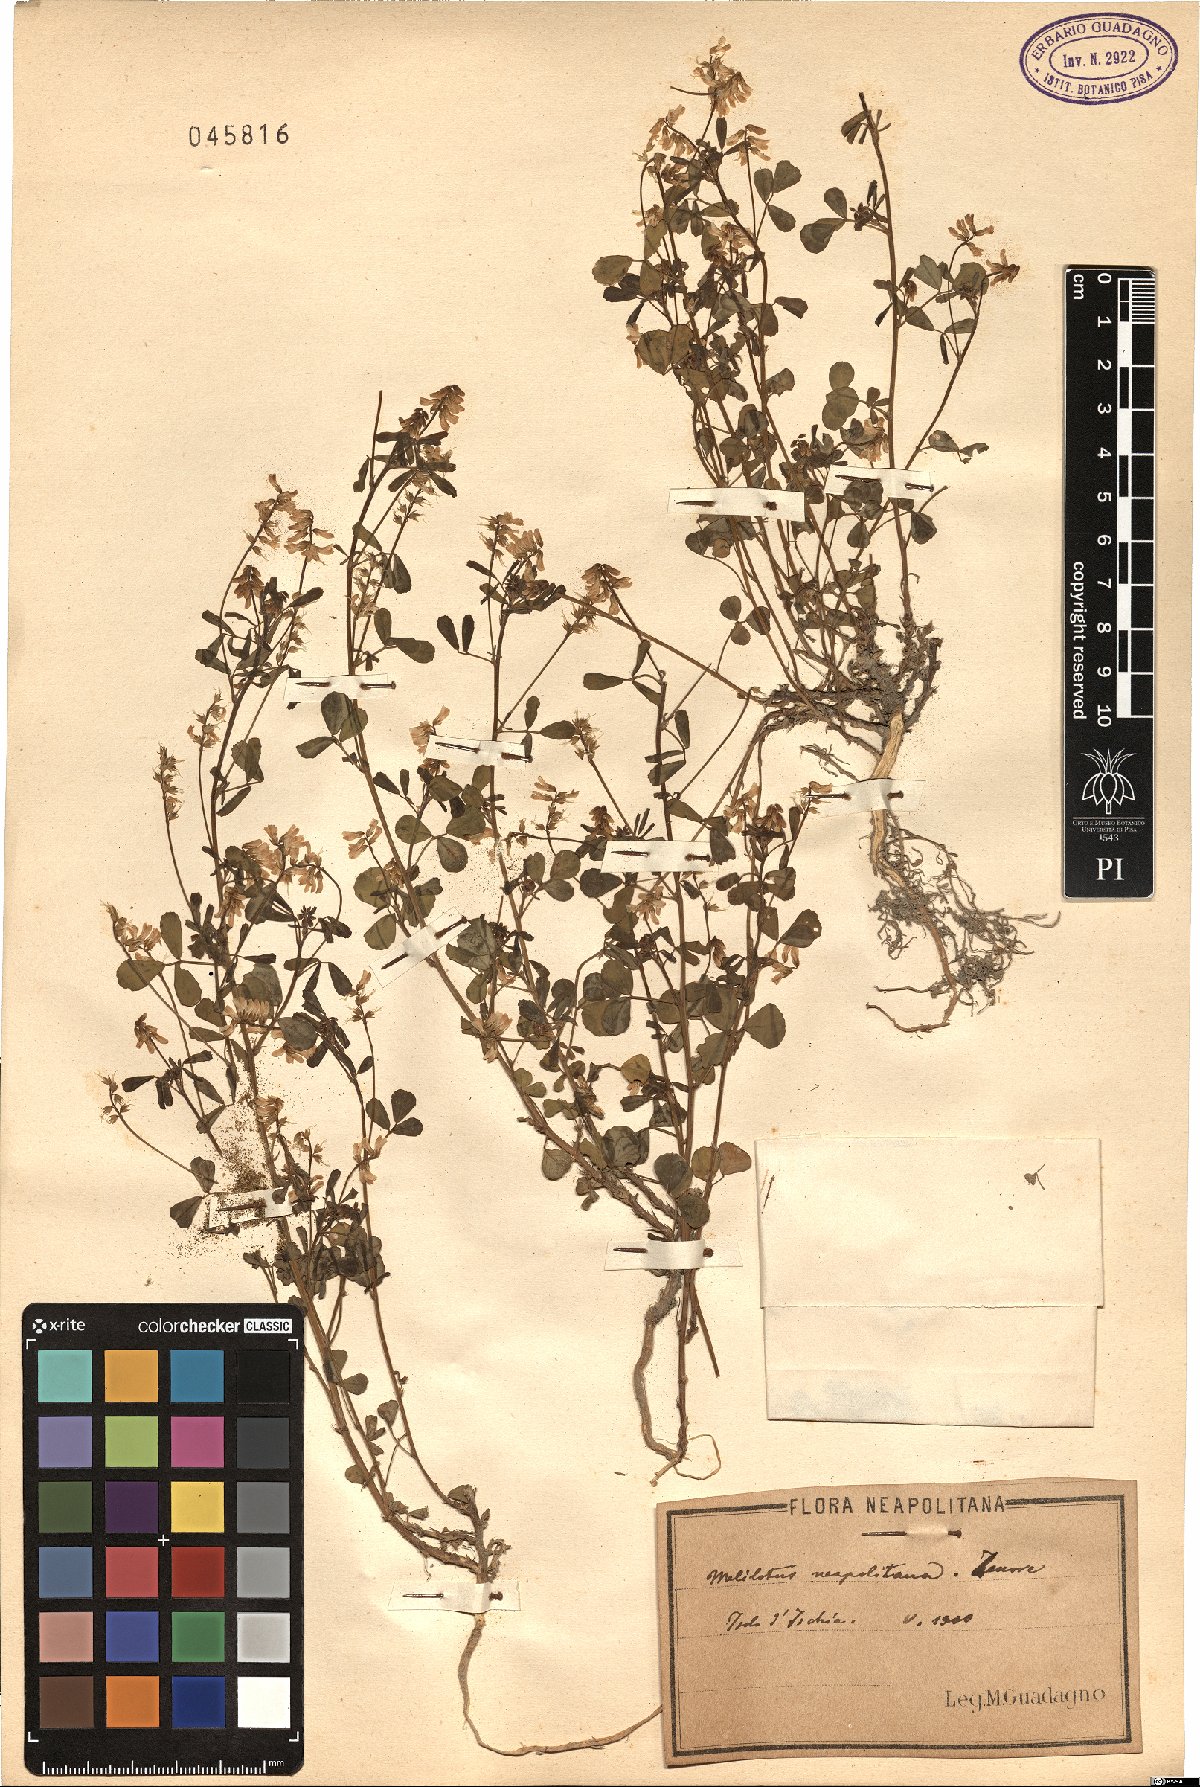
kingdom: Plantae
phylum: Tracheophyta
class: Magnoliopsida
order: Fabales
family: Fabaceae
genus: Melilotus
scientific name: Melilotus neapolitanus
